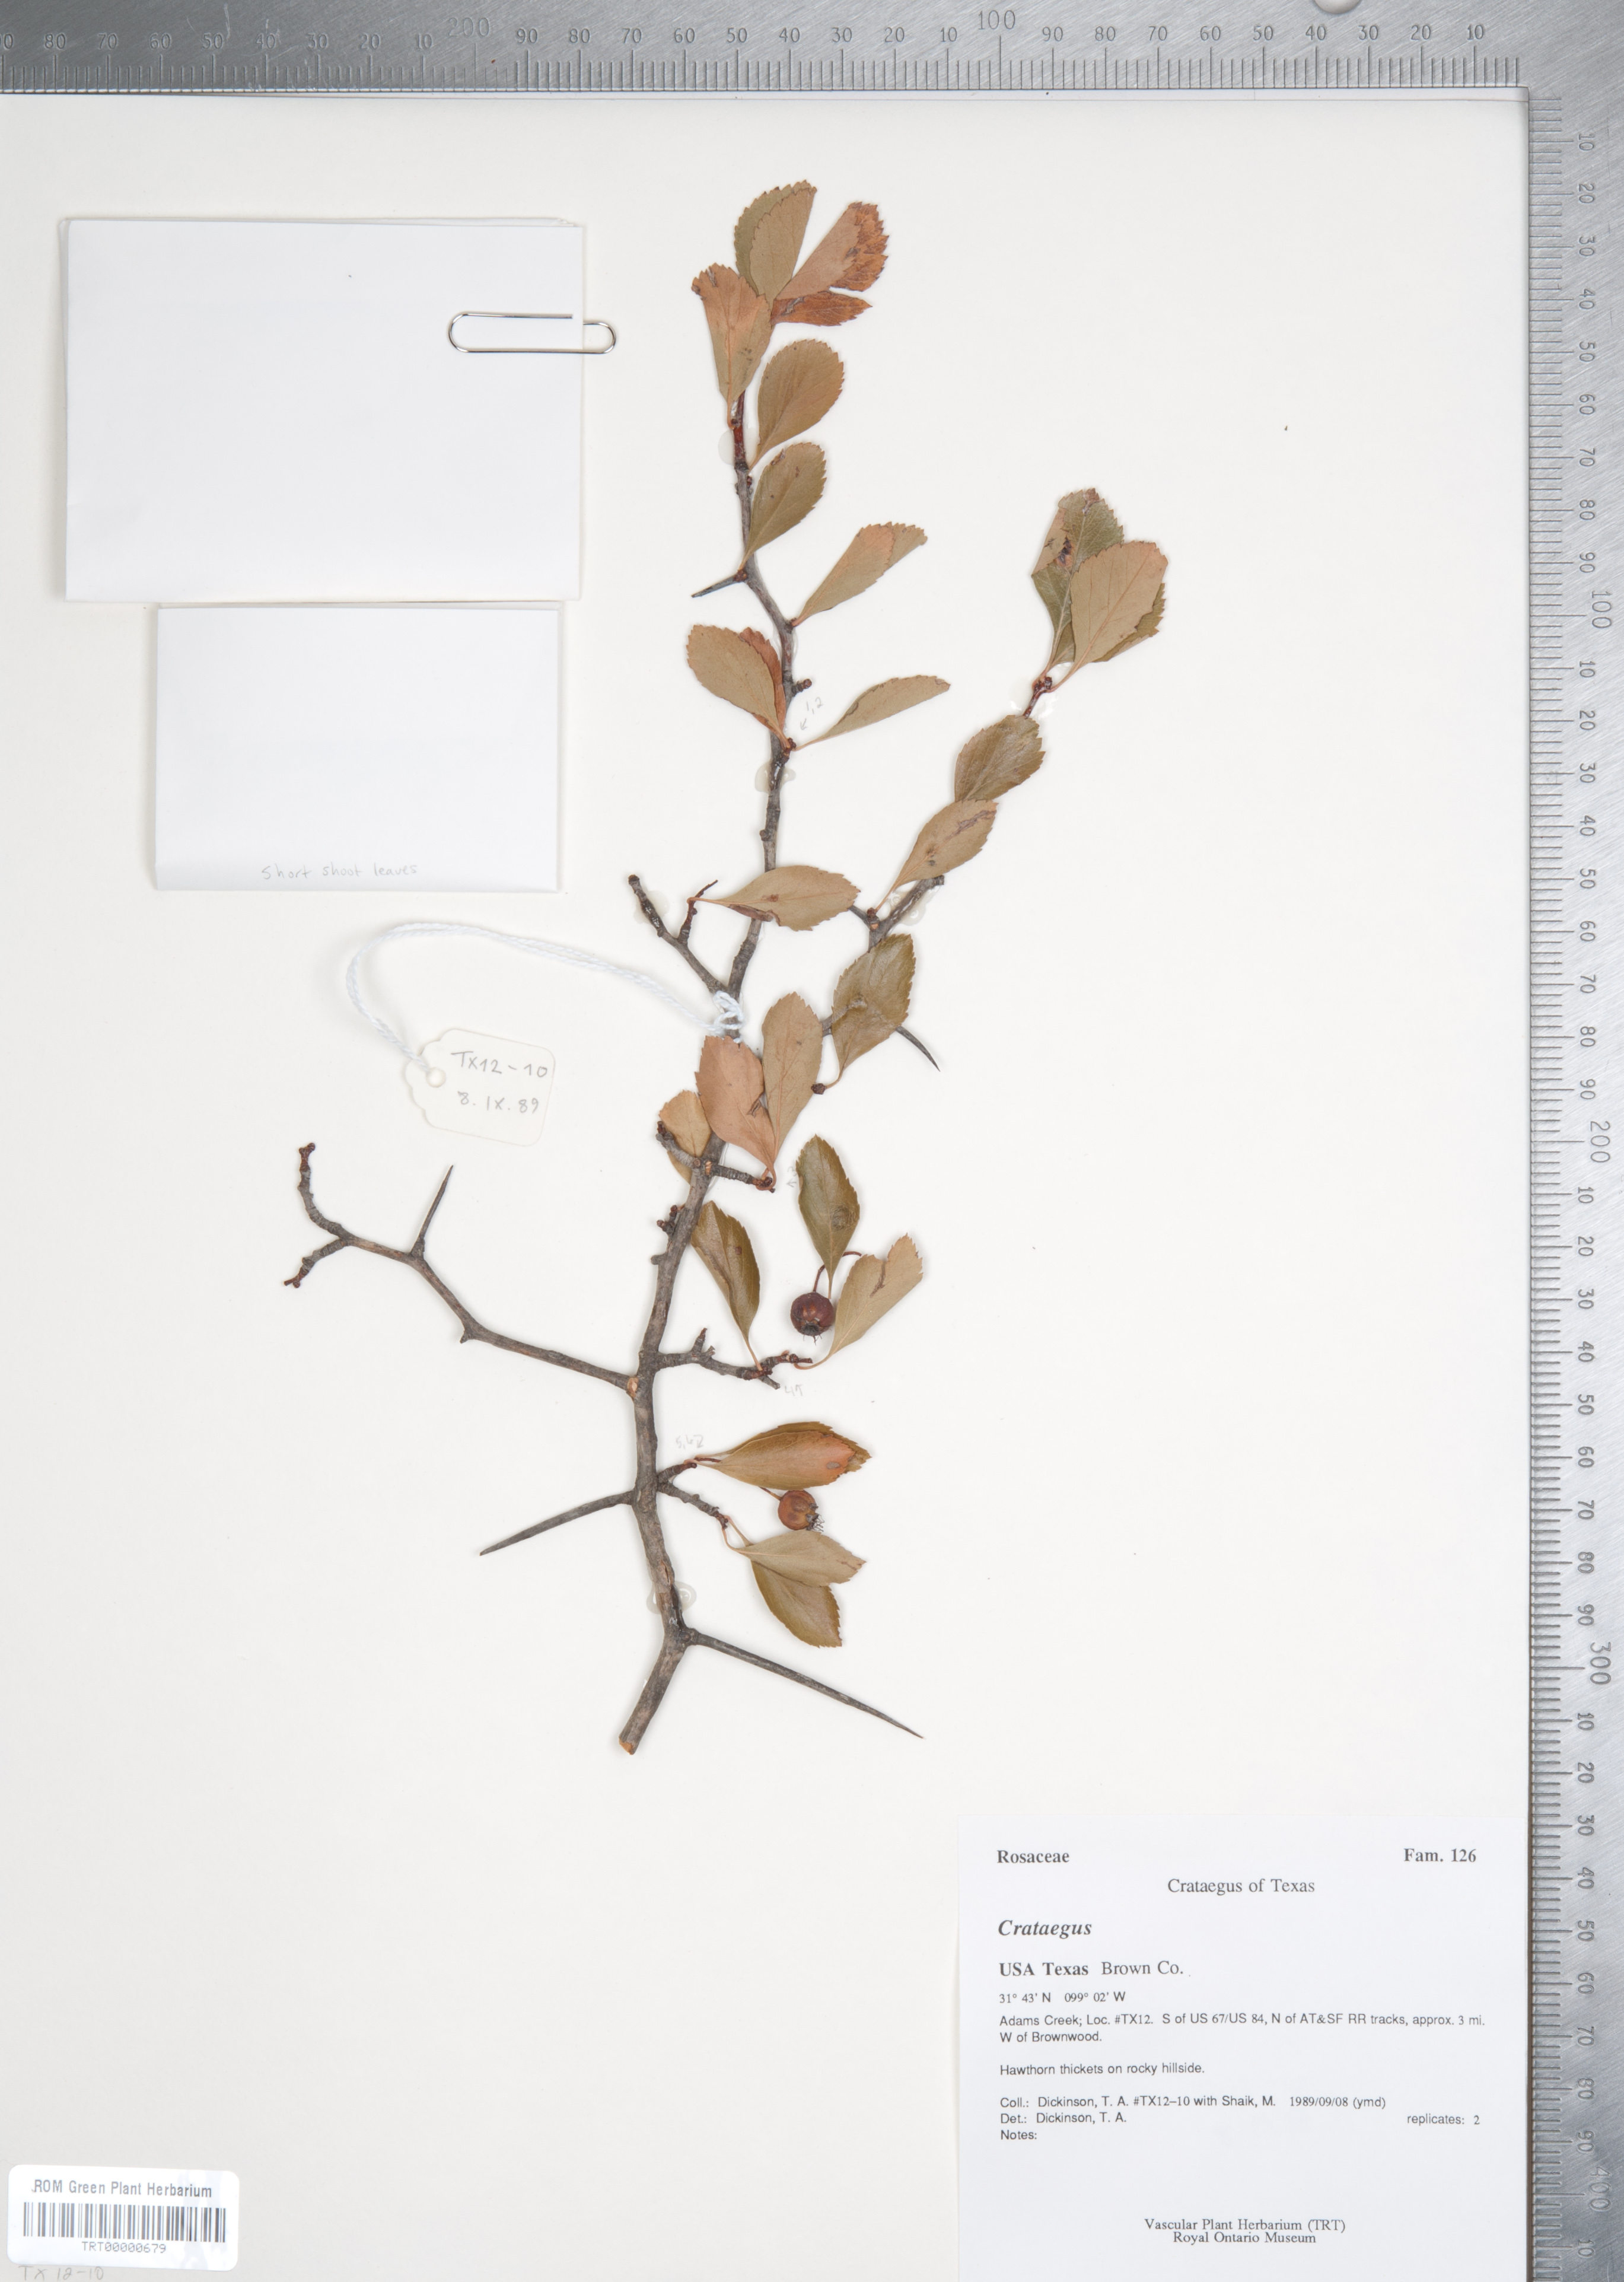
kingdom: Plantae
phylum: Tracheophyta
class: Magnoliopsida
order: Rosales
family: Rosaceae
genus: Crataegus
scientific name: Crataegus crus-galli
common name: Cockspurthorn
